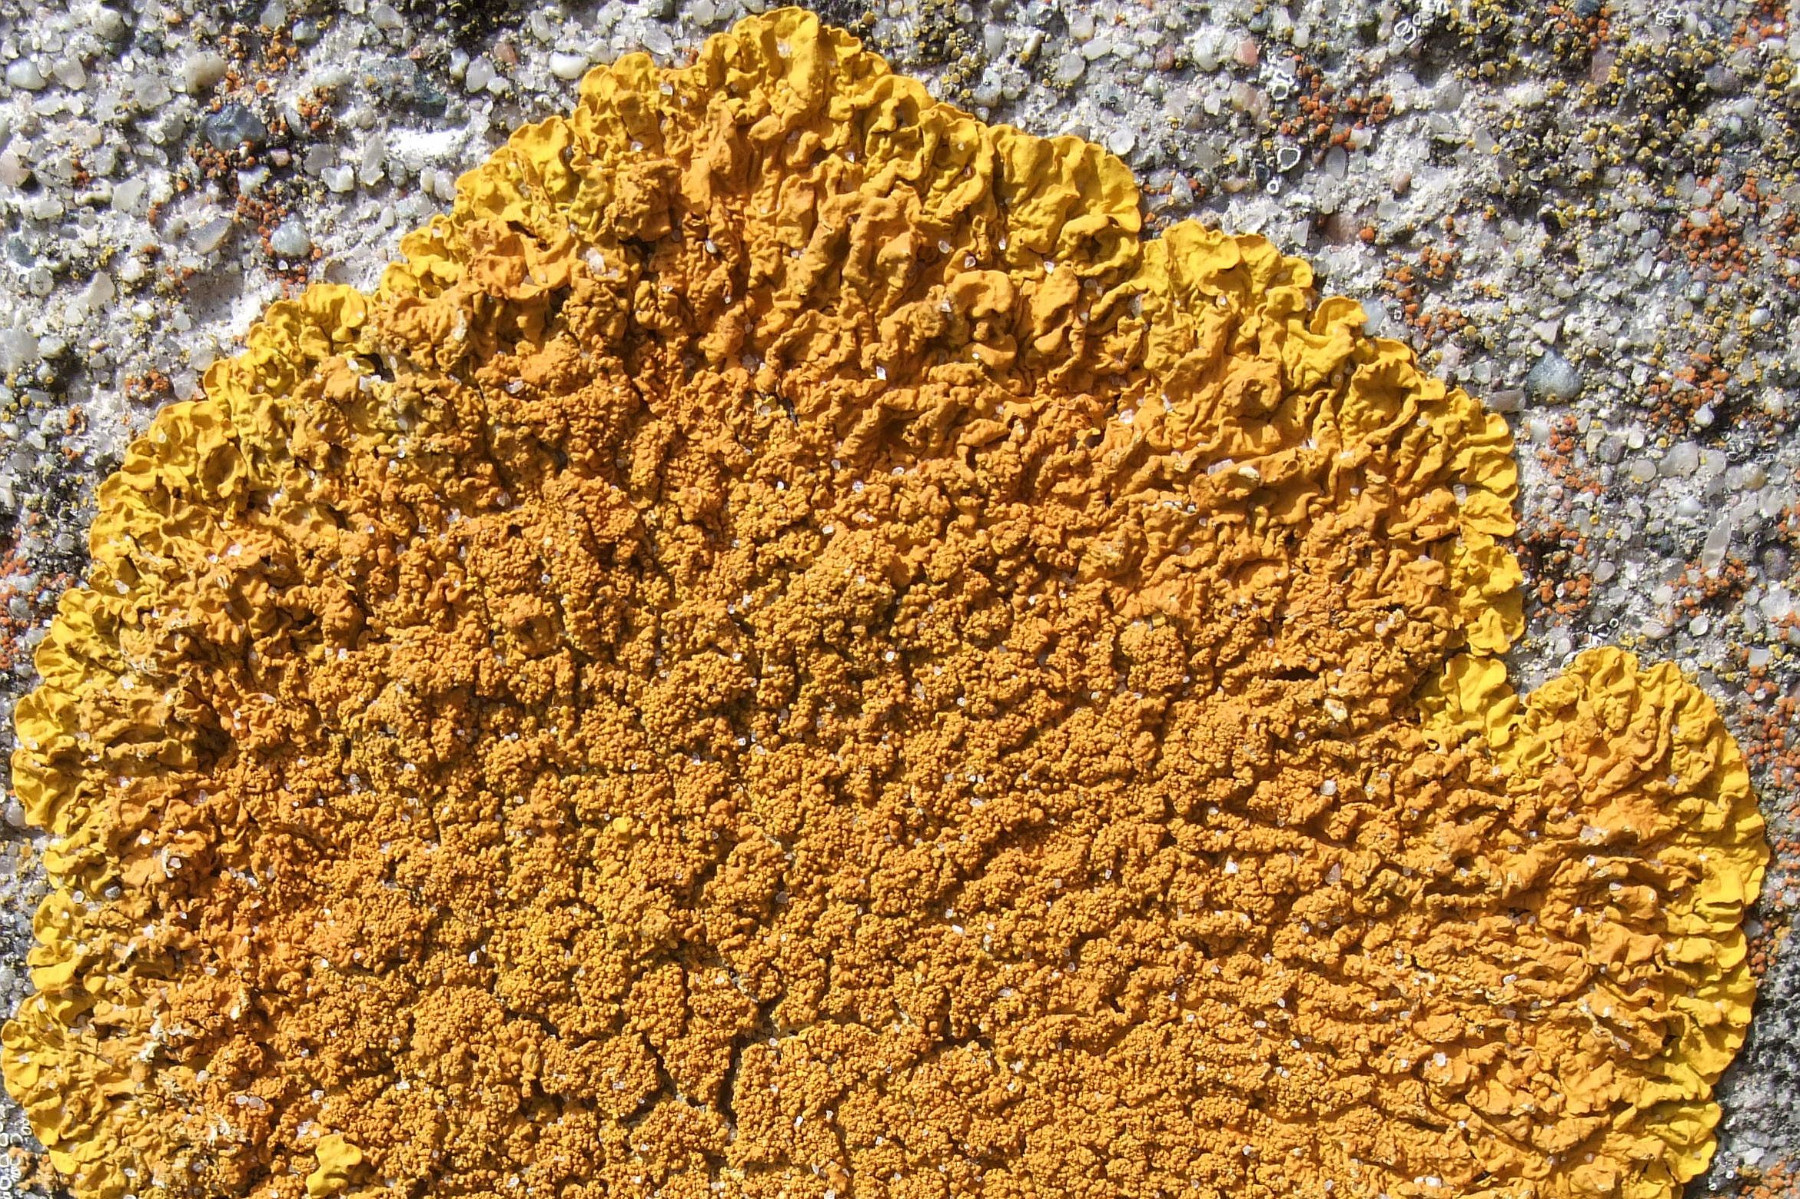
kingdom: Fungi
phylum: Ascomycota
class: Lecanoromycetes
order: Teloschistales
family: Teloschistaceae
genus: Xanthoria
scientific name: Xanthoria calcicola
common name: vortet væggelav
